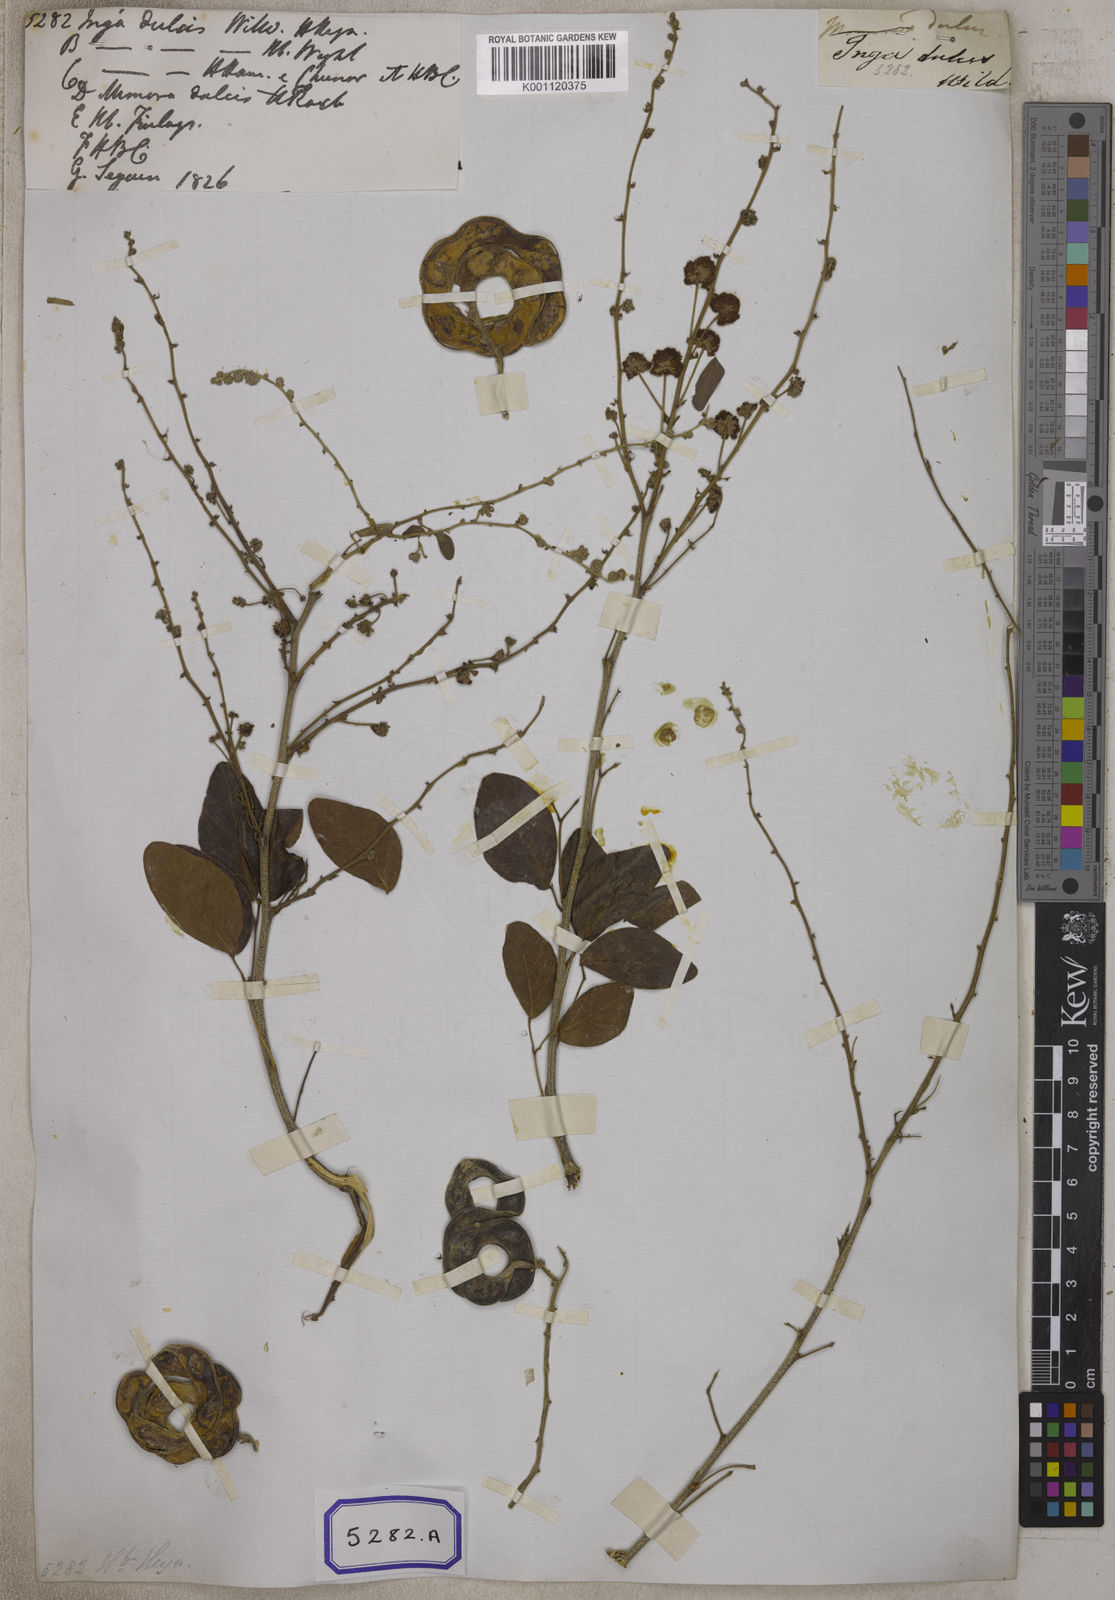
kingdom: Plantae
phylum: Tracheophyta
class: Magnoliopsida
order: Fabales
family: Fabaceae
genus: Pithecellobium
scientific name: Pithecellobium dulce
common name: Monkeypod
